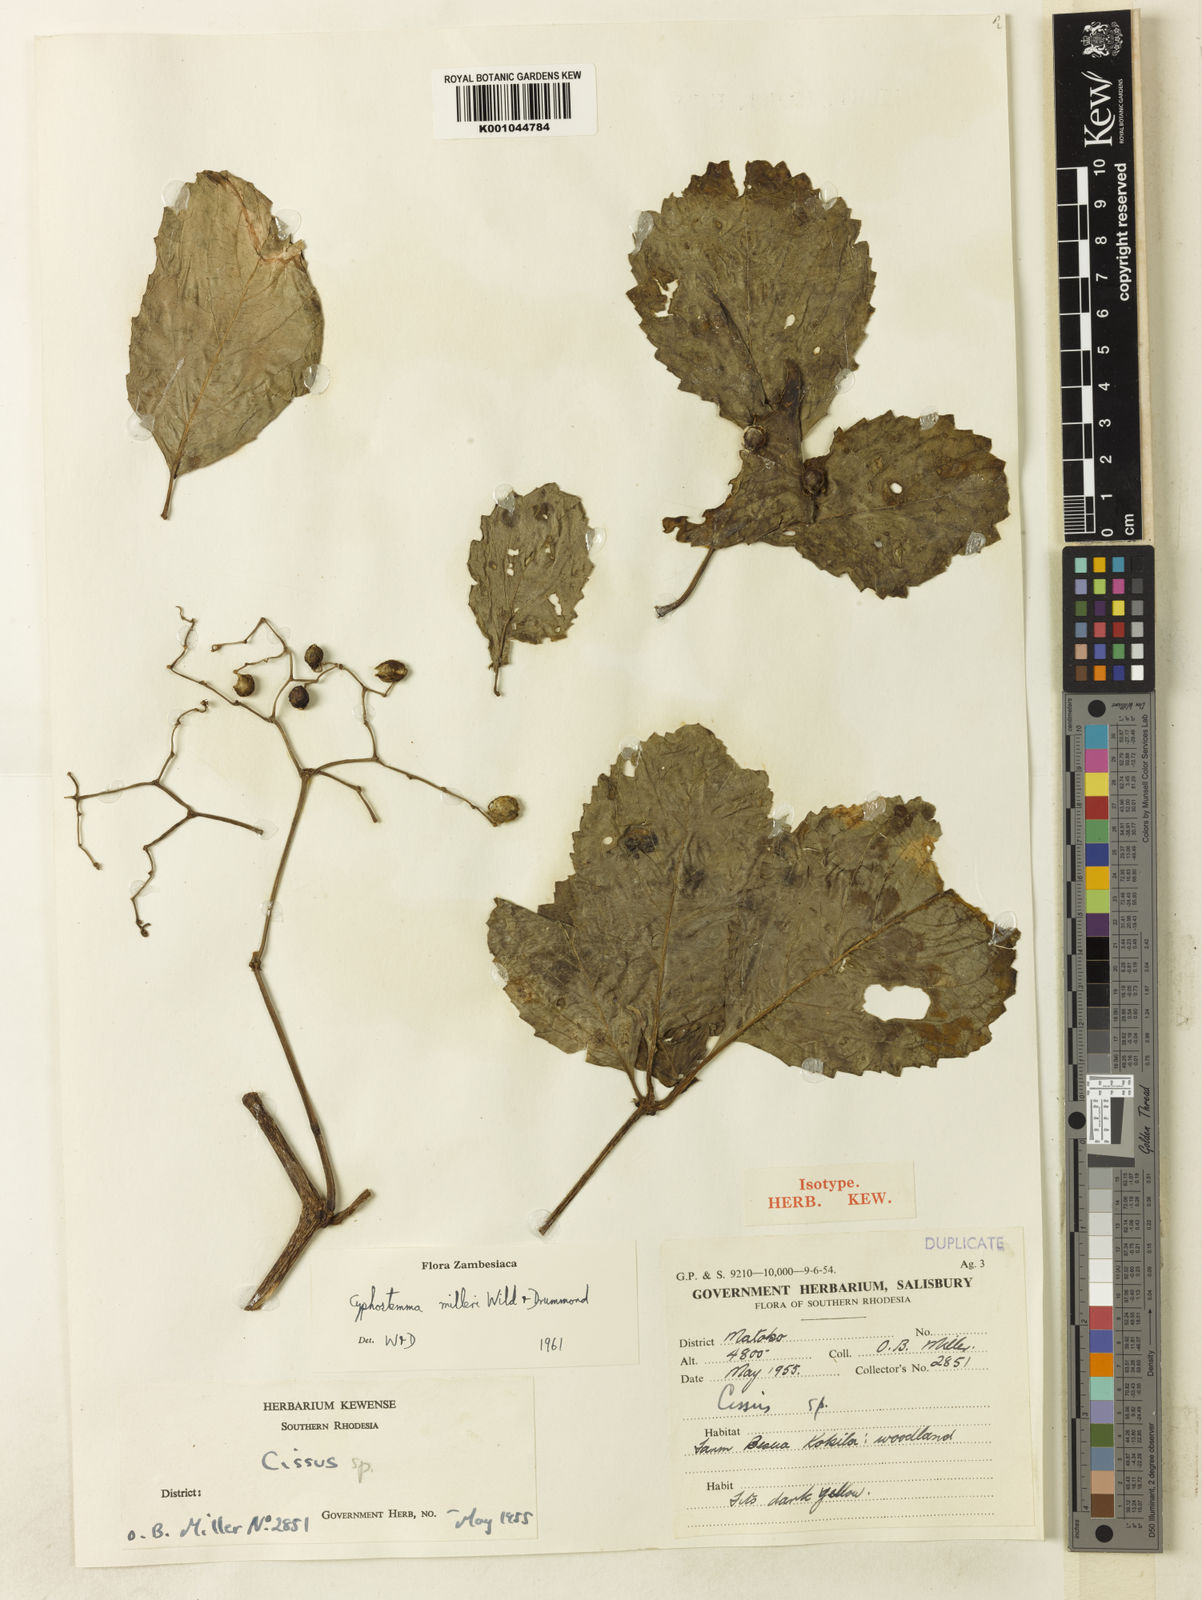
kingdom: Plantae
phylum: Tracheophyta
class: Magnoliopsida
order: Vitales
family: Vitaceae
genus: Cyphostemma
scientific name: Cyphostemma milleri
